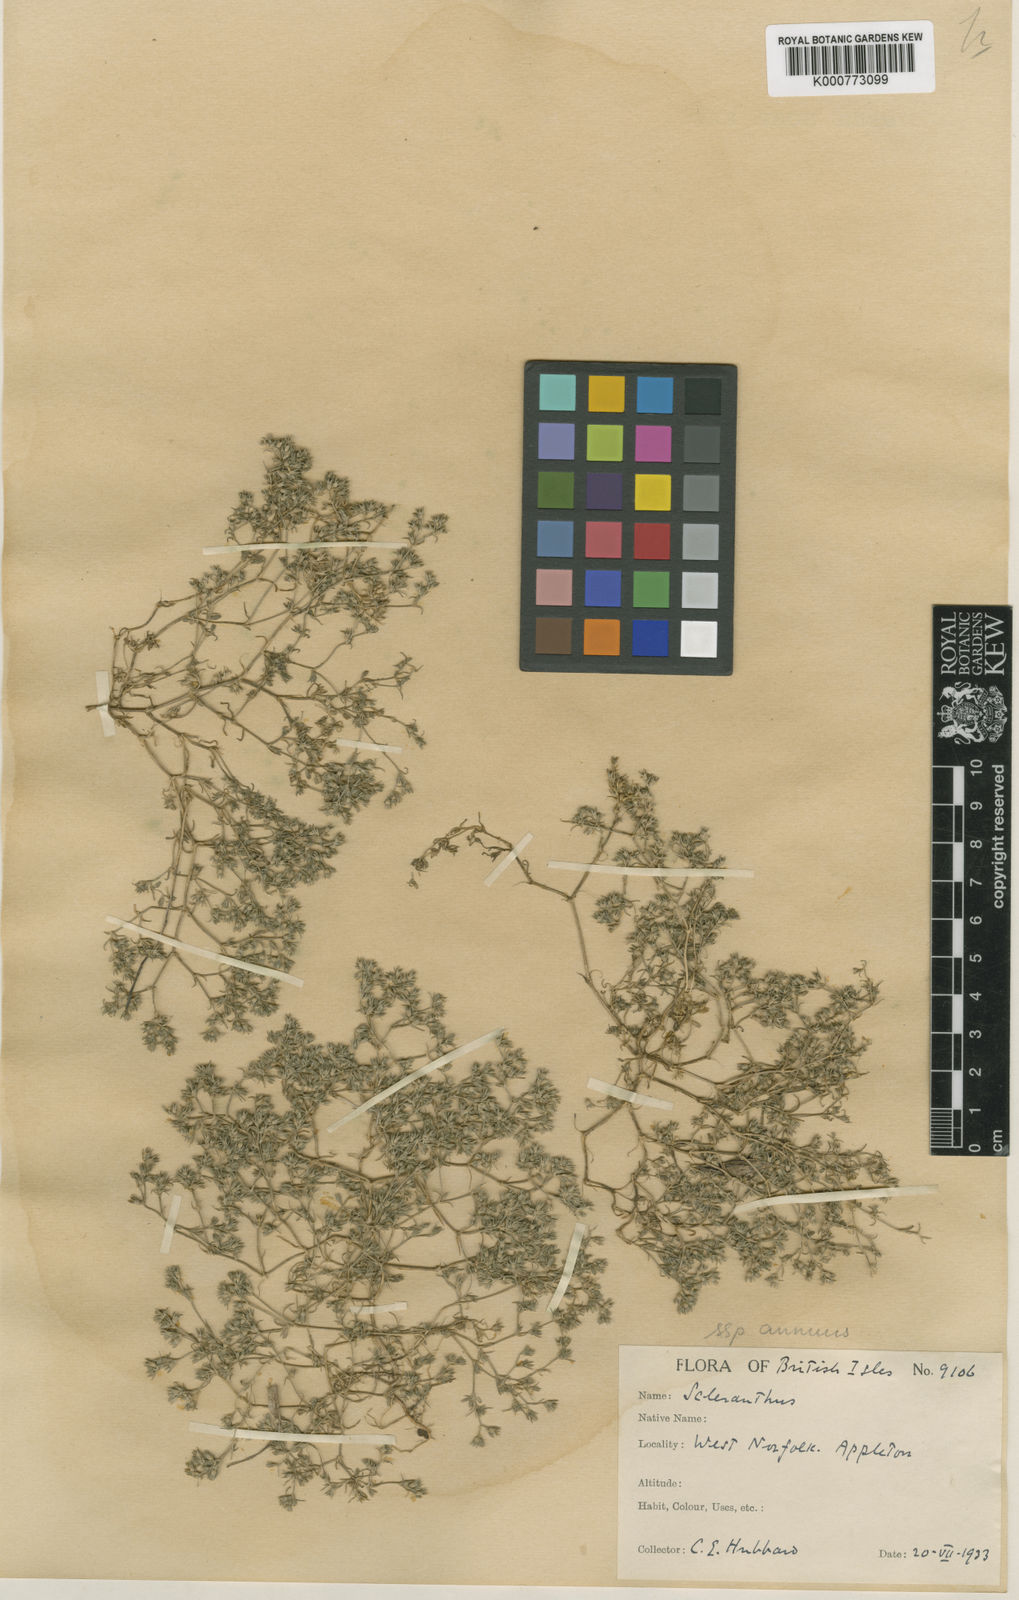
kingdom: Plantae
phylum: Tracheophyta
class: Magnoliopsida
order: Caryophyllales
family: Caryophyllaceae
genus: Scleranthus
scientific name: Scleranthus annuus
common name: Annual knawel
